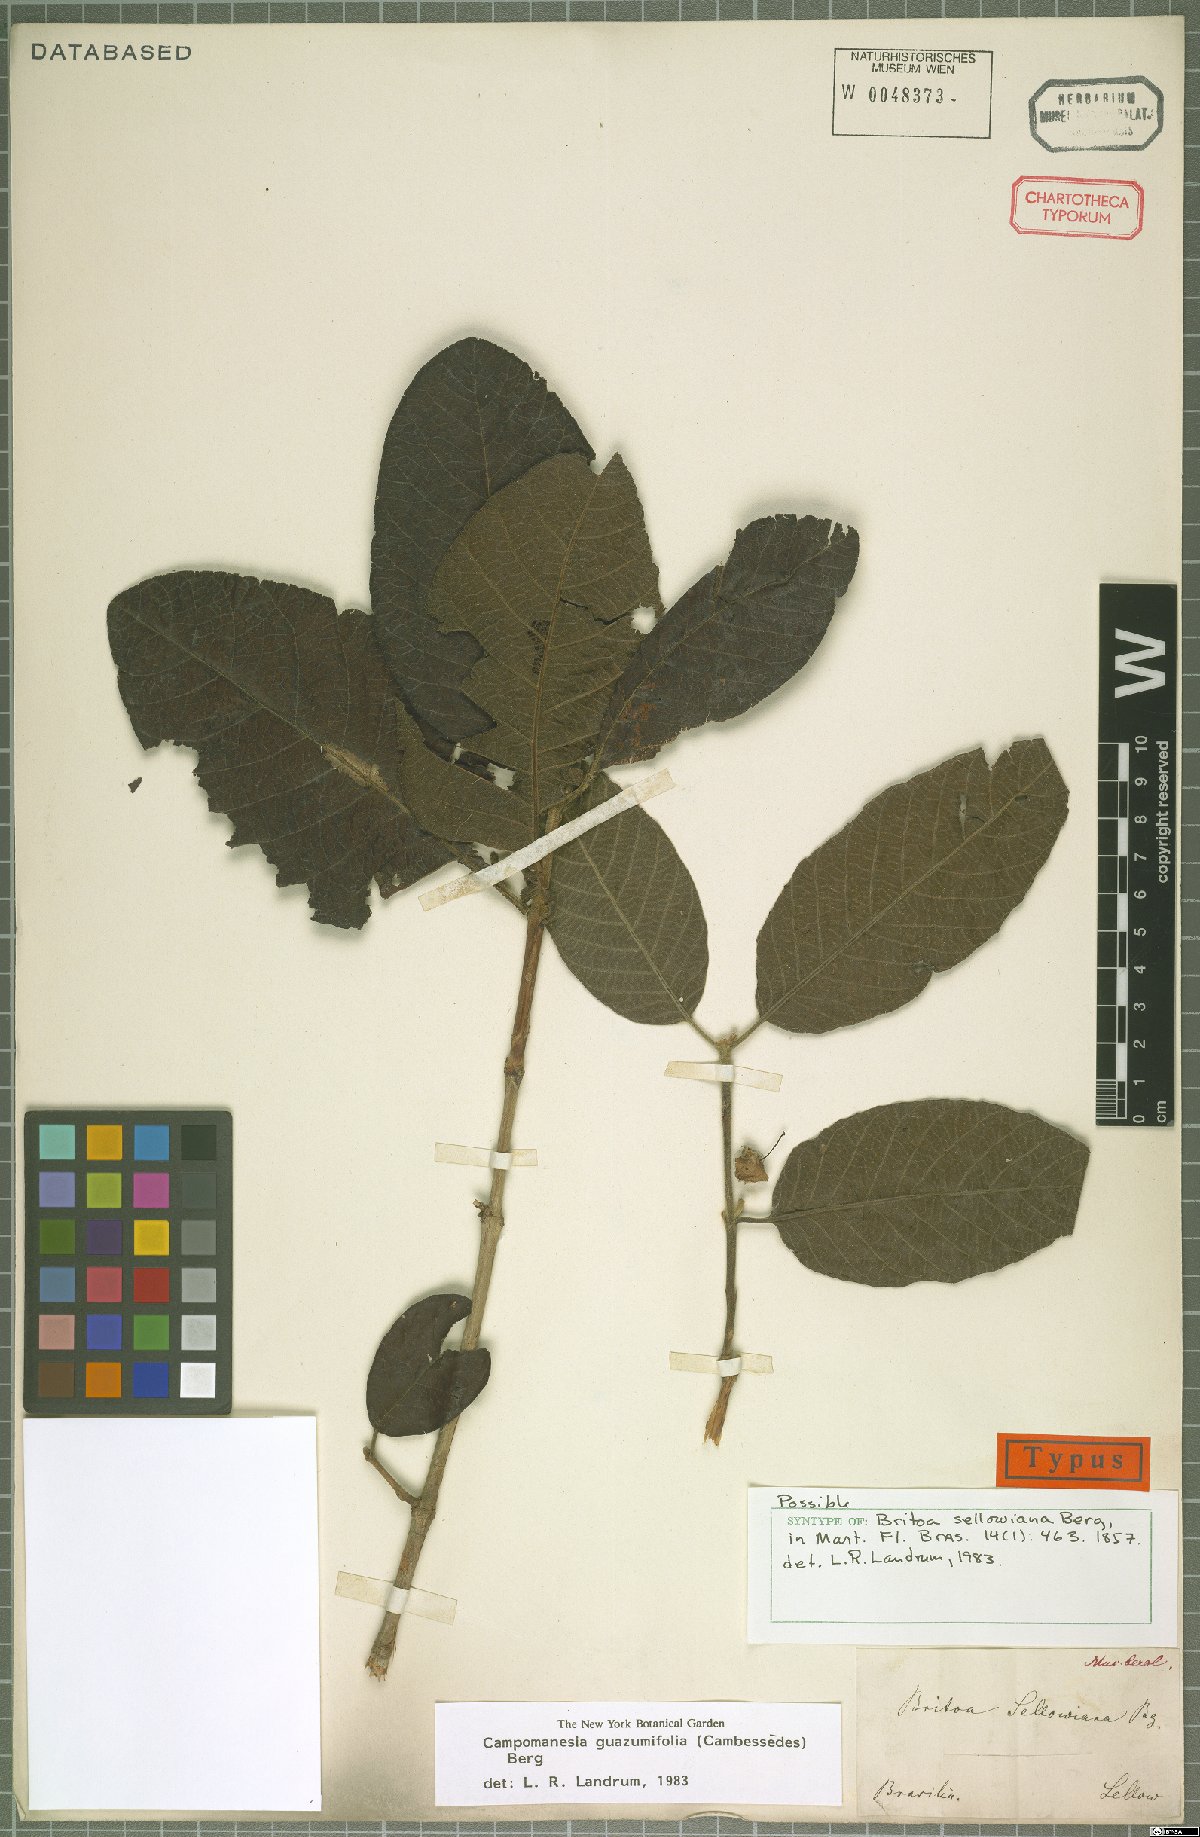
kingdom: Plantae
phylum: Tracheophyta
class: Magnoliopsida
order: Myrtales
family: Myrtaceae
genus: Campomanesia
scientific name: Campomanesia guazumifolia
